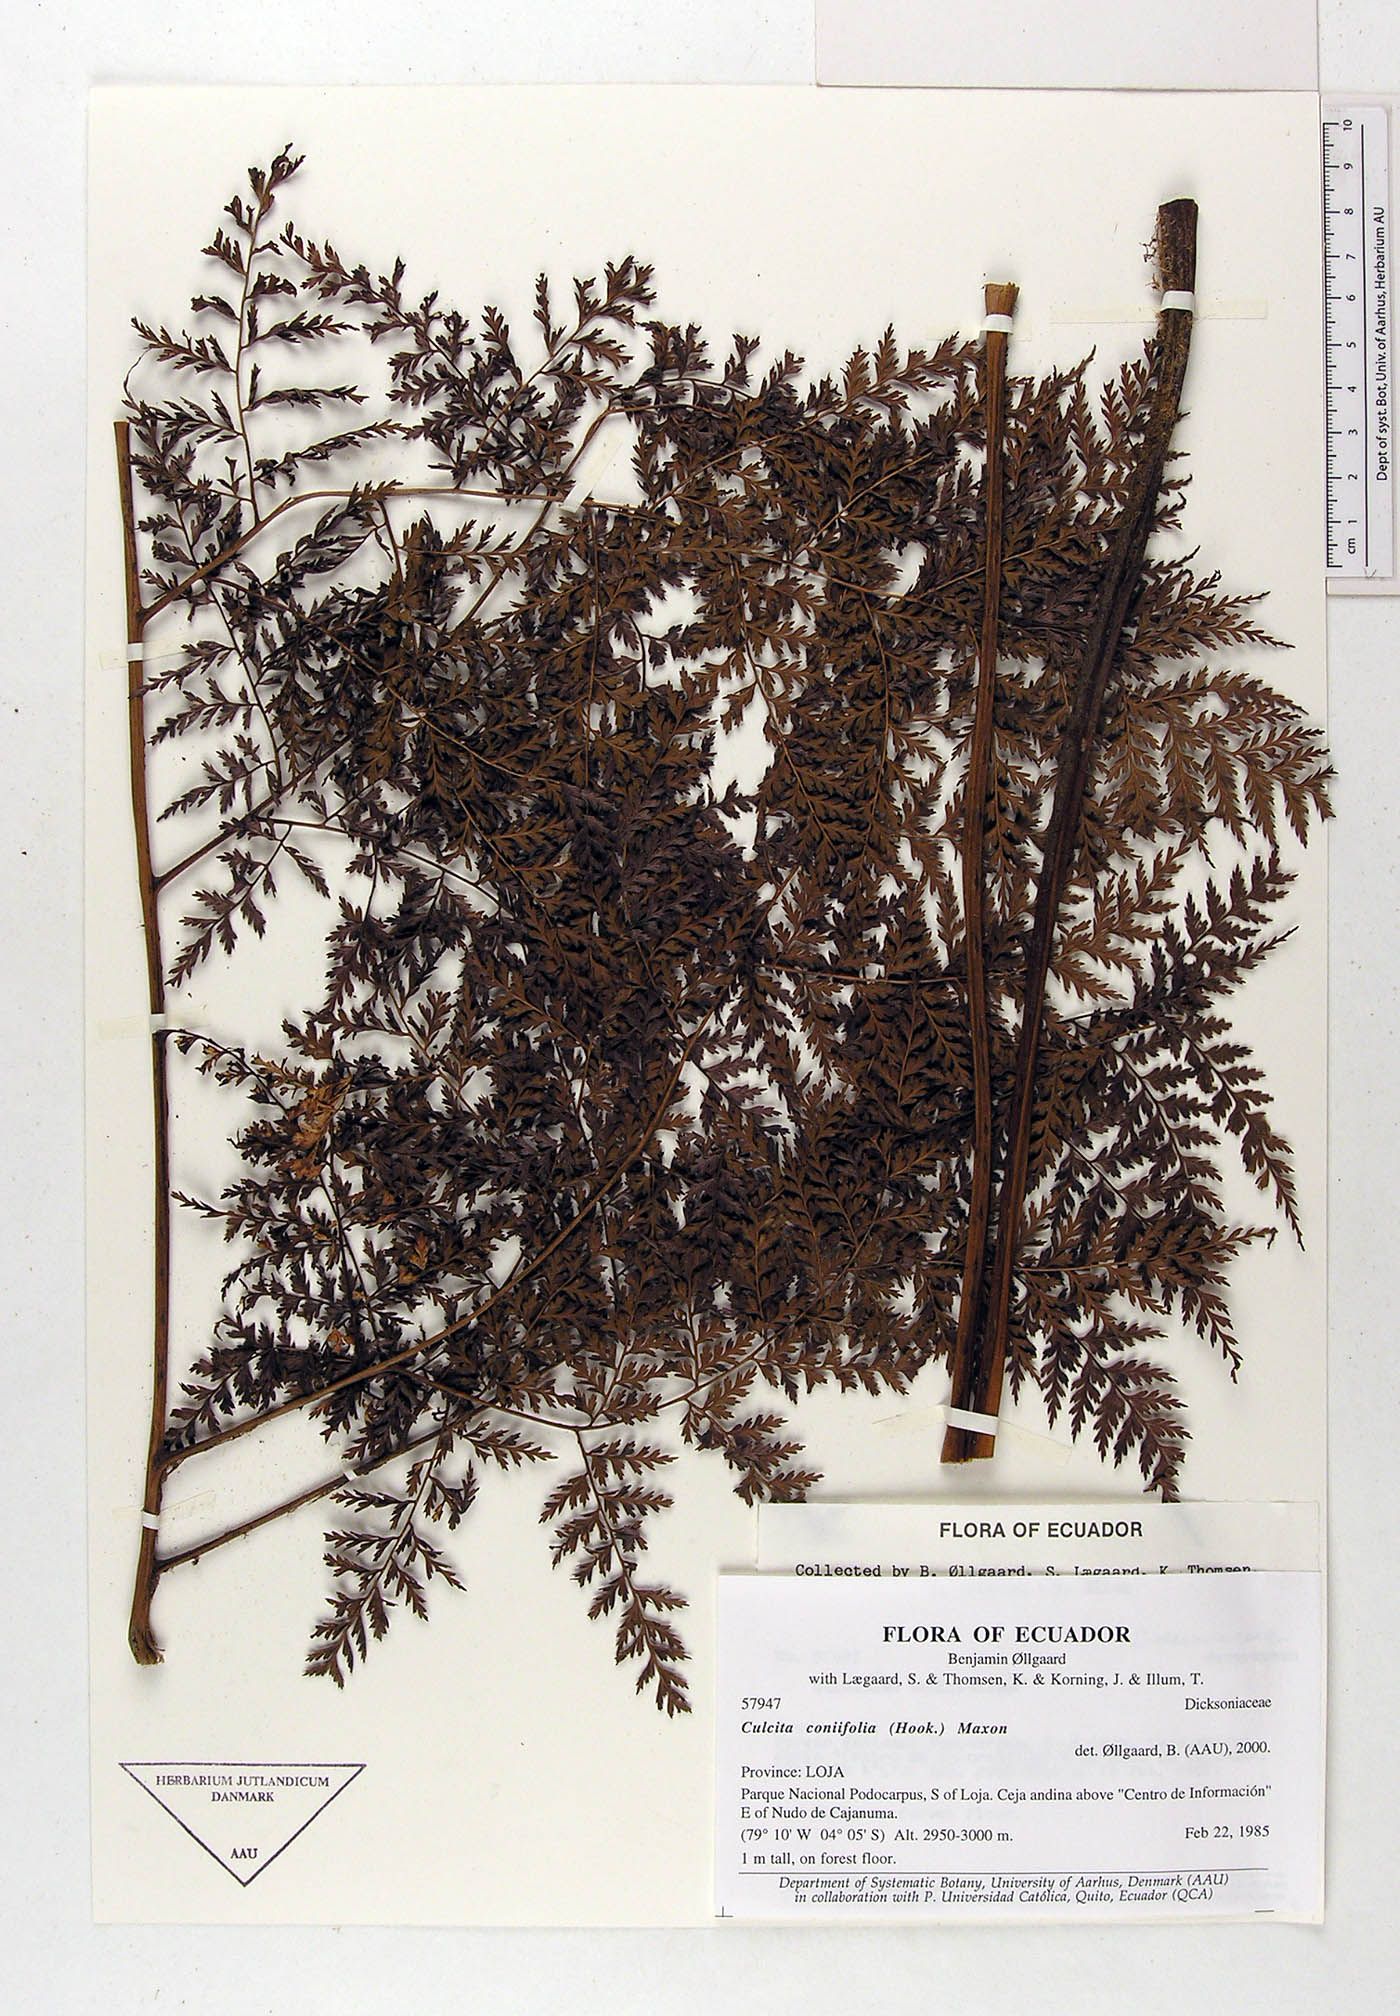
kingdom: Plantae
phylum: Tracheophyta
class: Polypodiopsida
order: Cyatheales
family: Culcitaceae
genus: Culcita
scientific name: Culcita coniifolia
